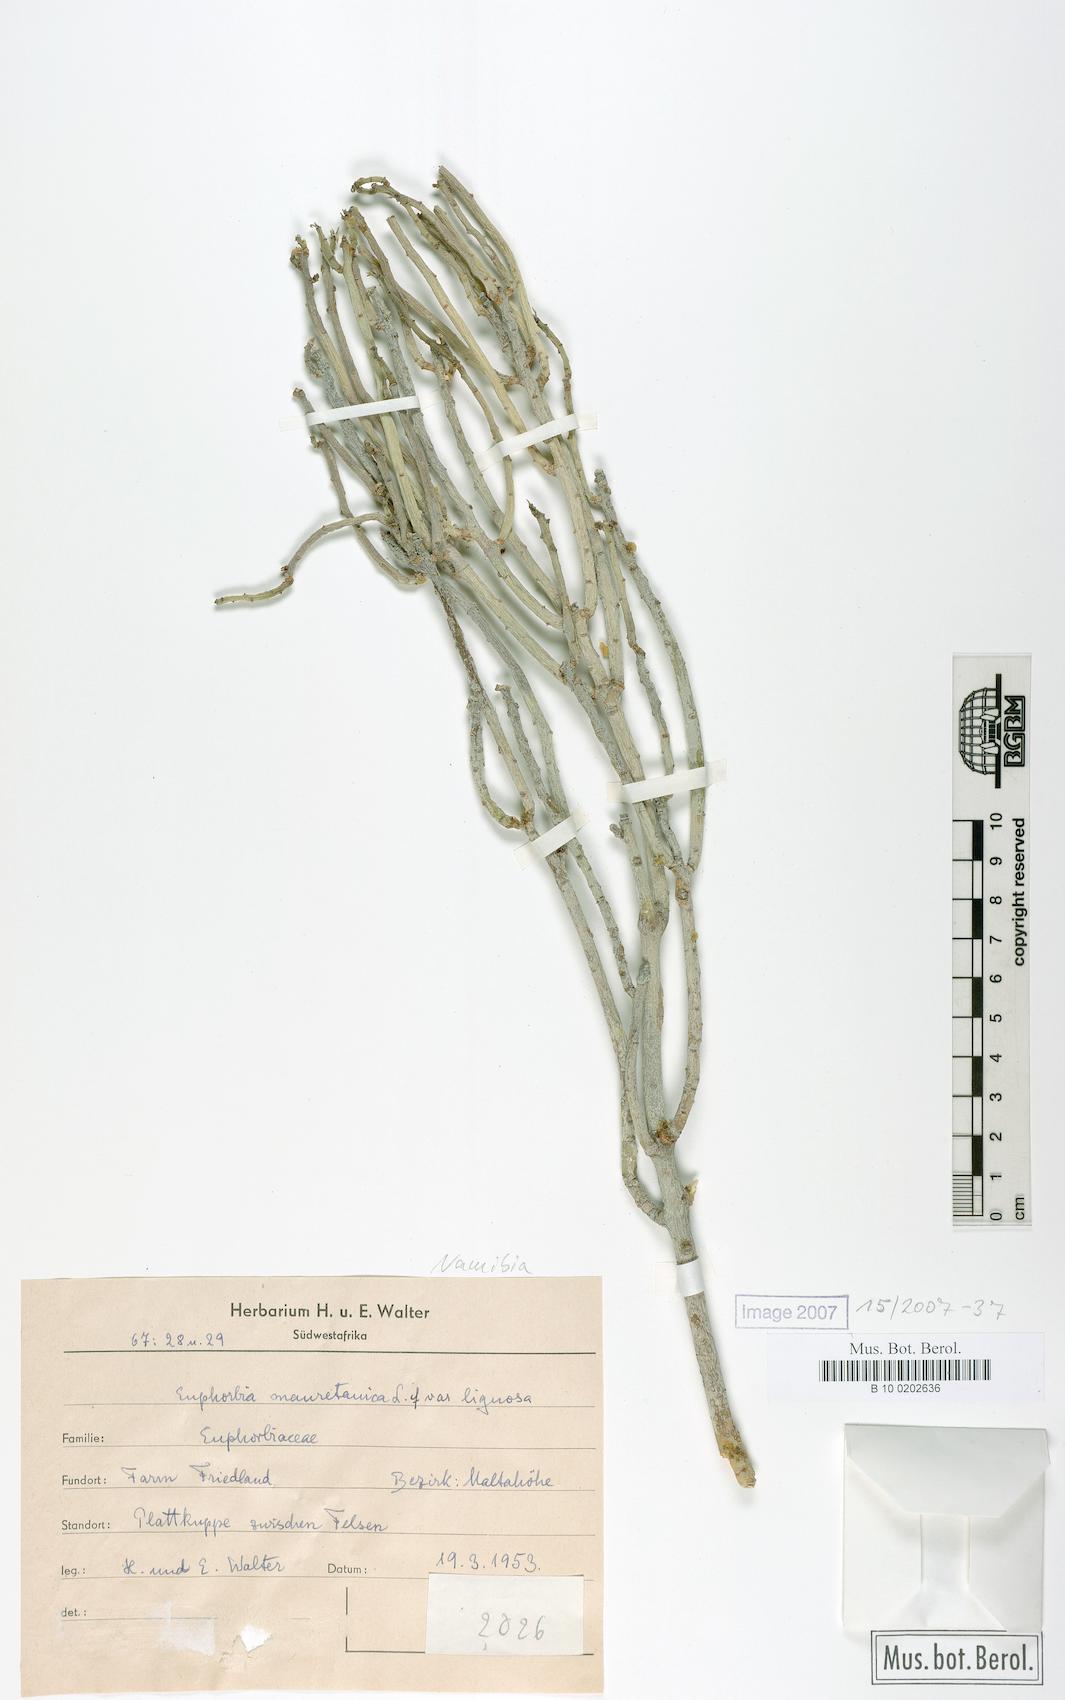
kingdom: Plantae
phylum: Tracheophyta
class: Magnoliopsida
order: Malpighiales
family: Euphorbiaceae
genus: Euphorbia
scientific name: Euphorbia mauritanica
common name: Jackal's-food
